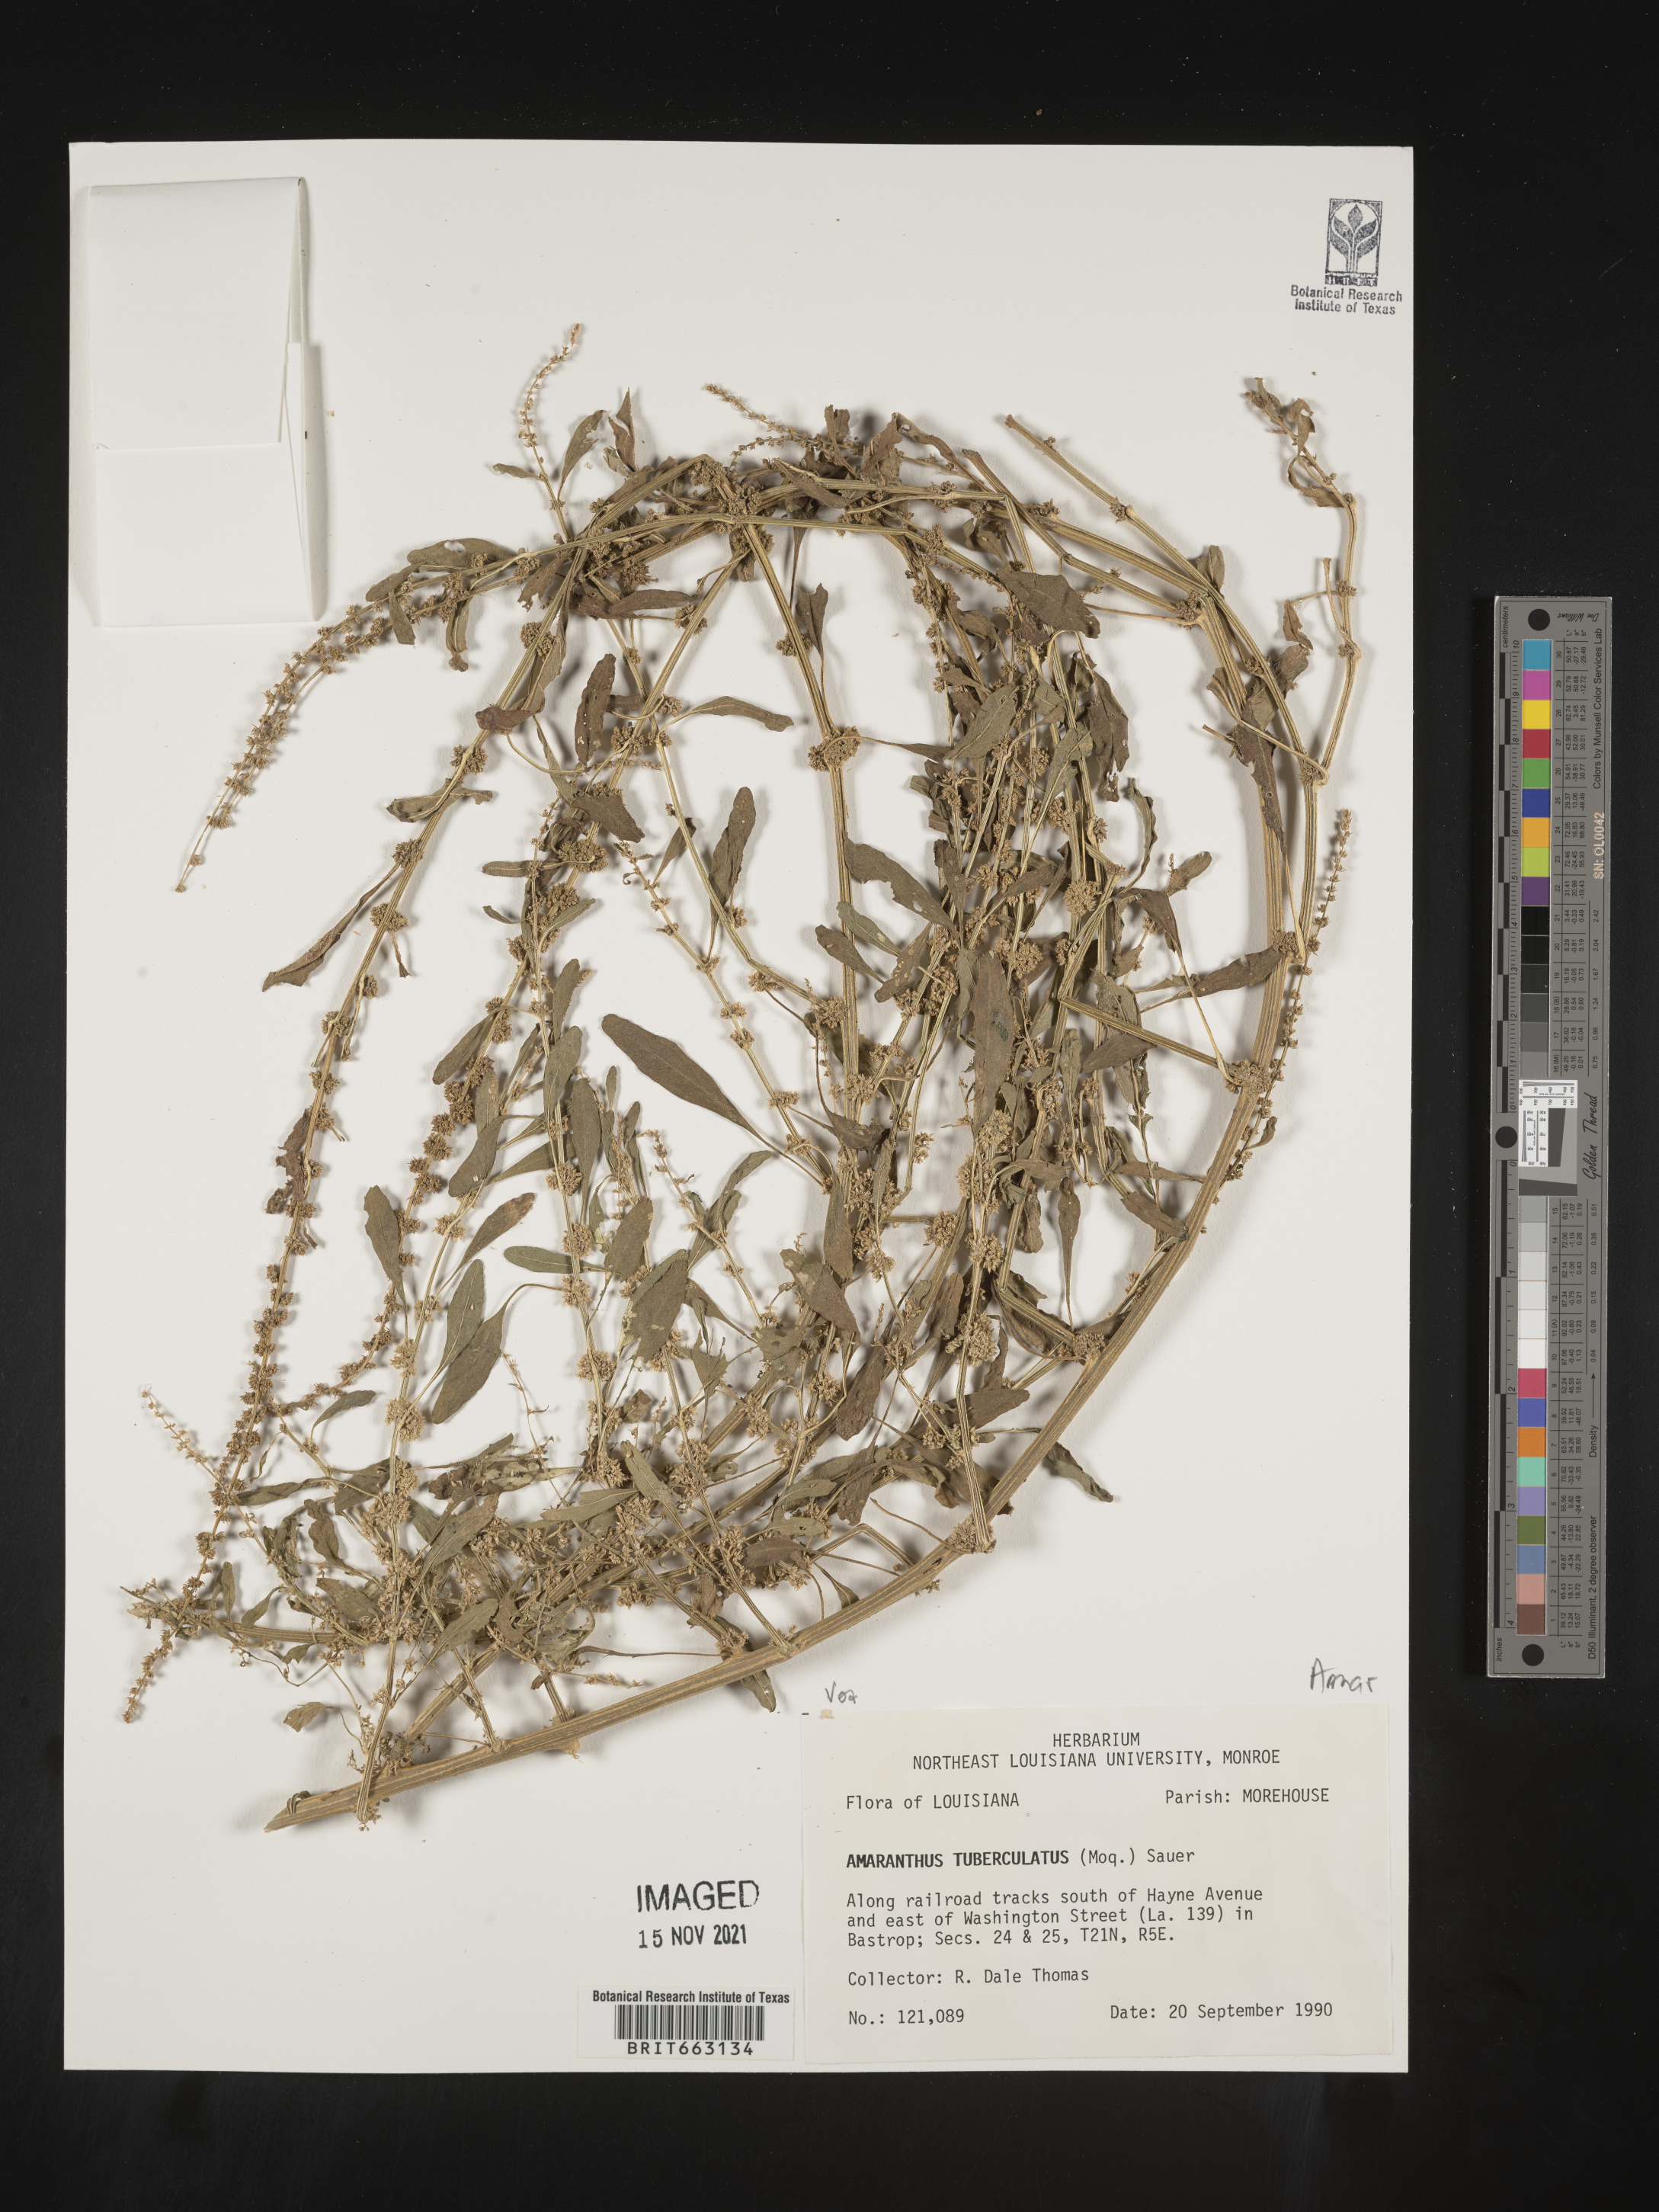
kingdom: Plantae
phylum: Tracheophyta
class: Magnoliopsida
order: Caryophyllales
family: Amaranthaceae
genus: Amaranthus
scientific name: Amaranthus tuberculatus
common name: Rough-fruit amaranth
